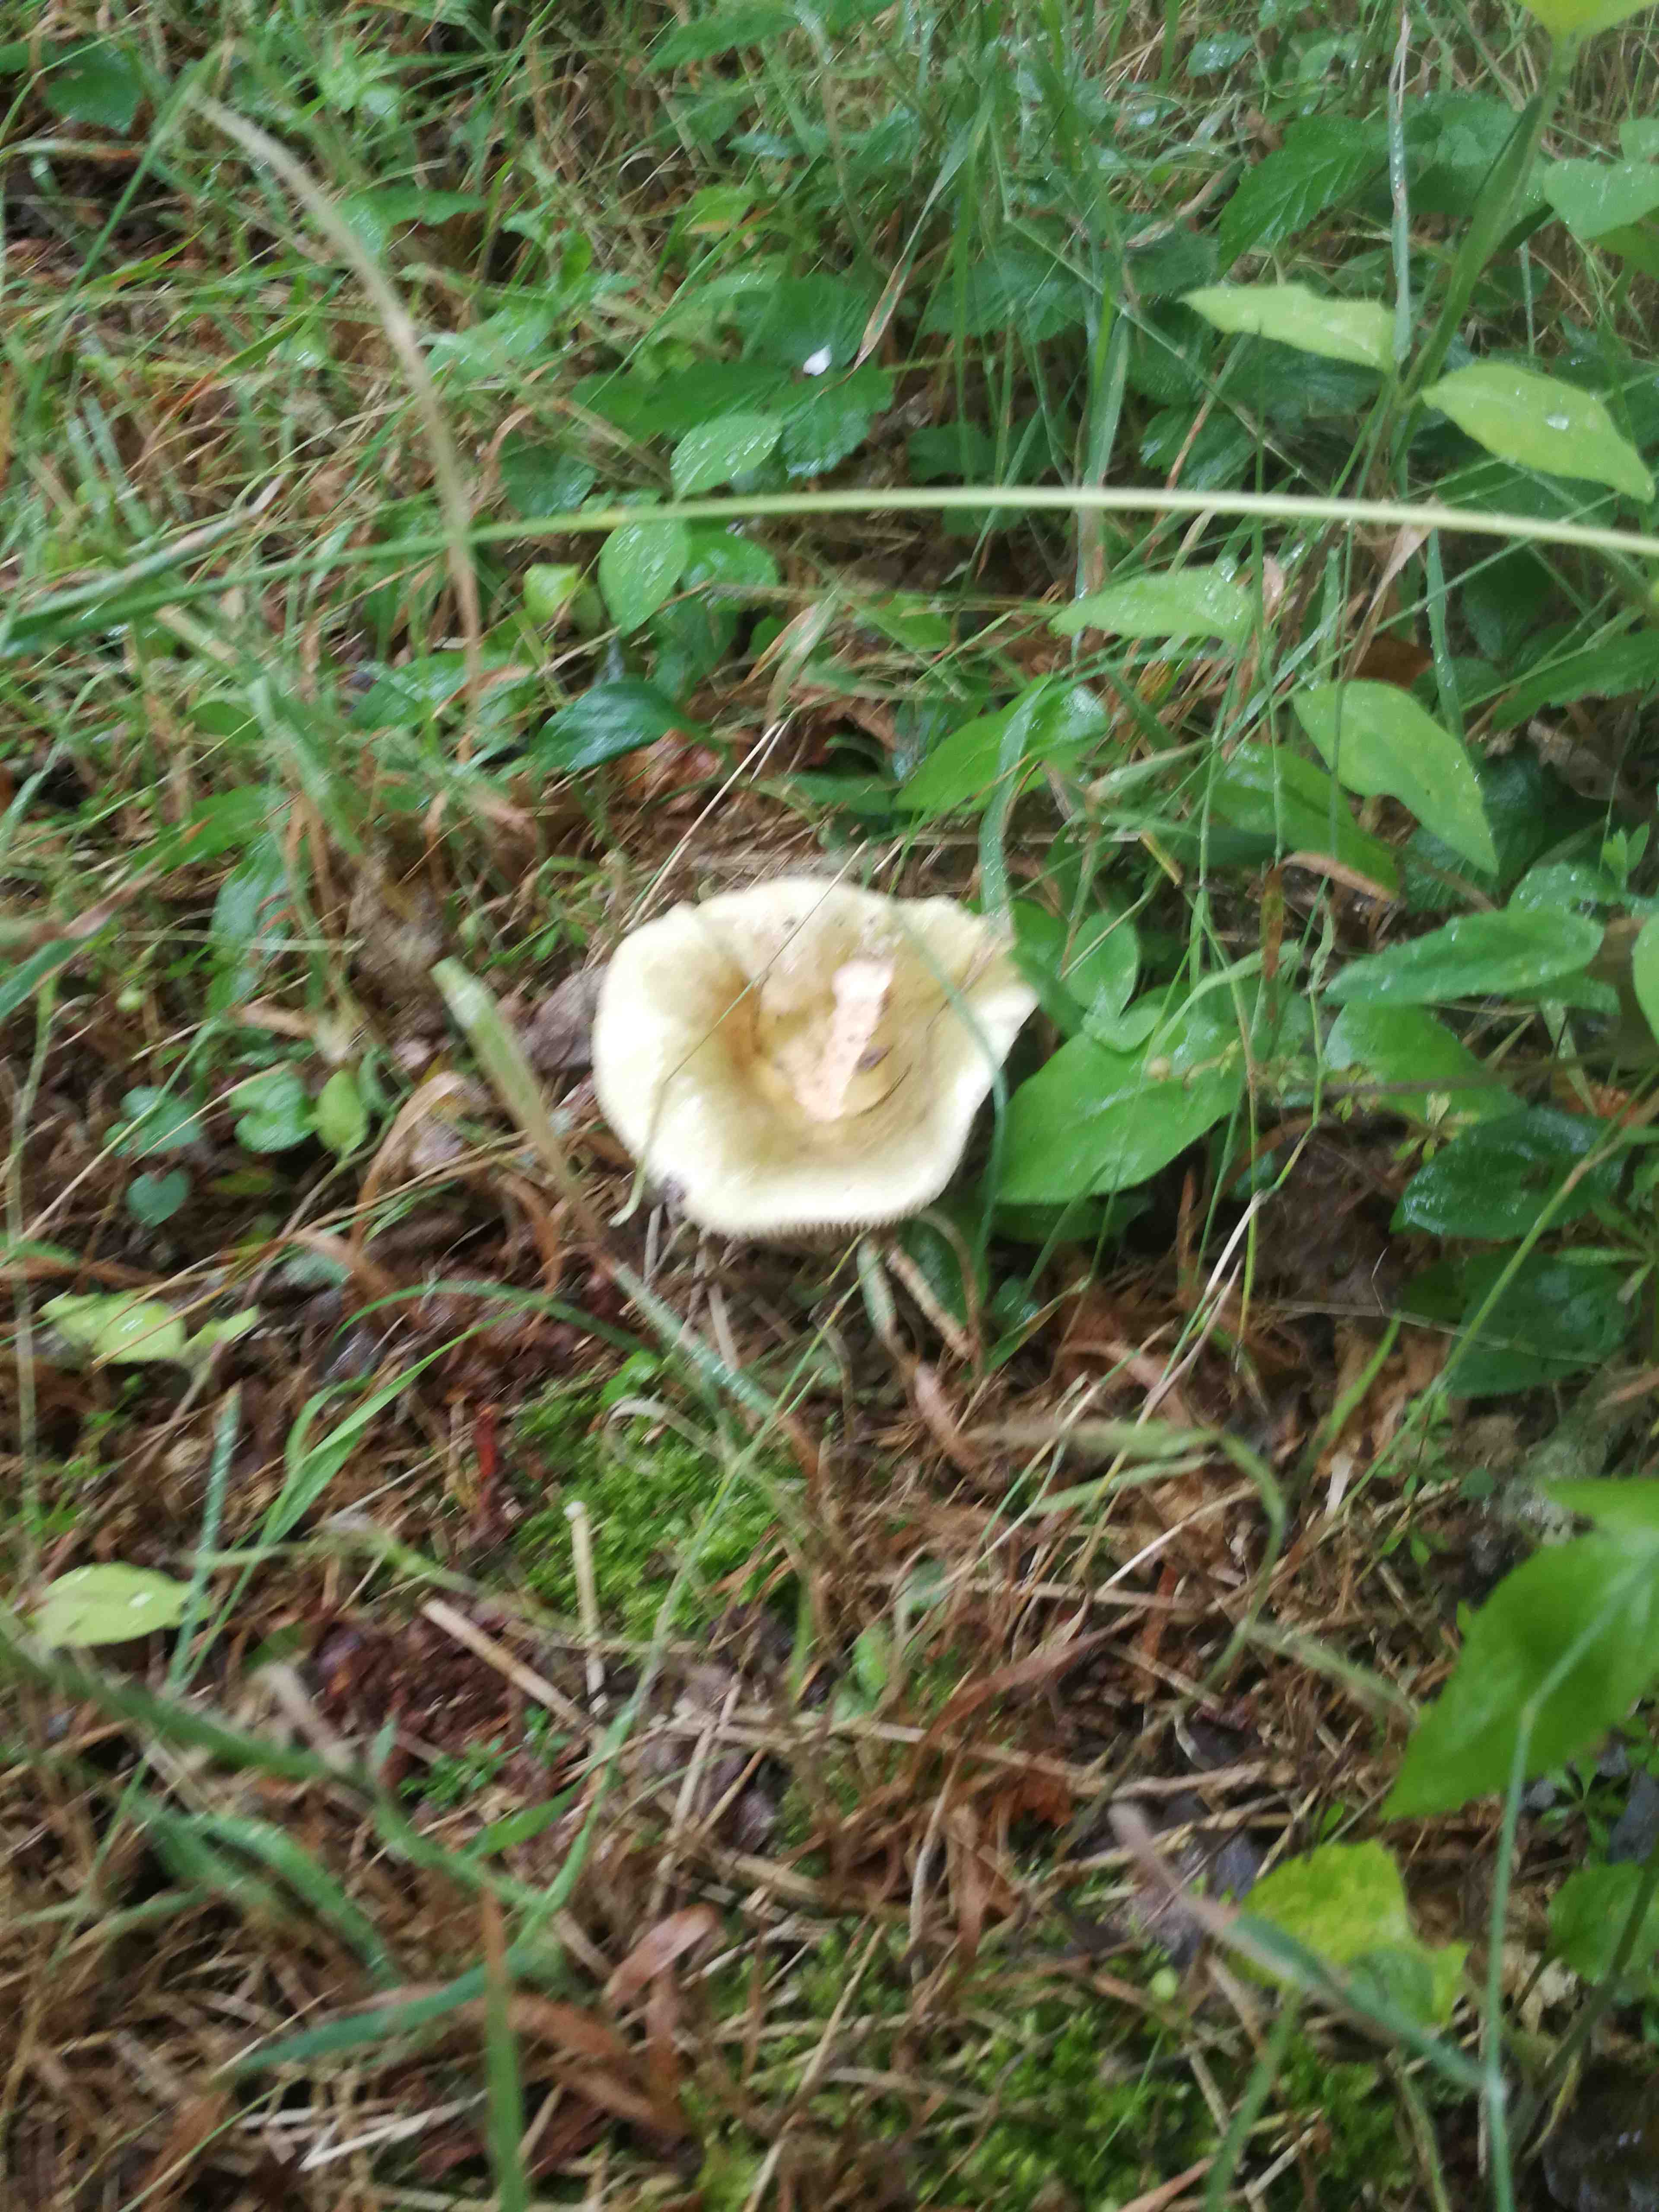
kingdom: Fungi
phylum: Basidiomycota
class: Agaricomycetes
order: Russulales
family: Russulaceae
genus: Russula
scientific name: Russula
